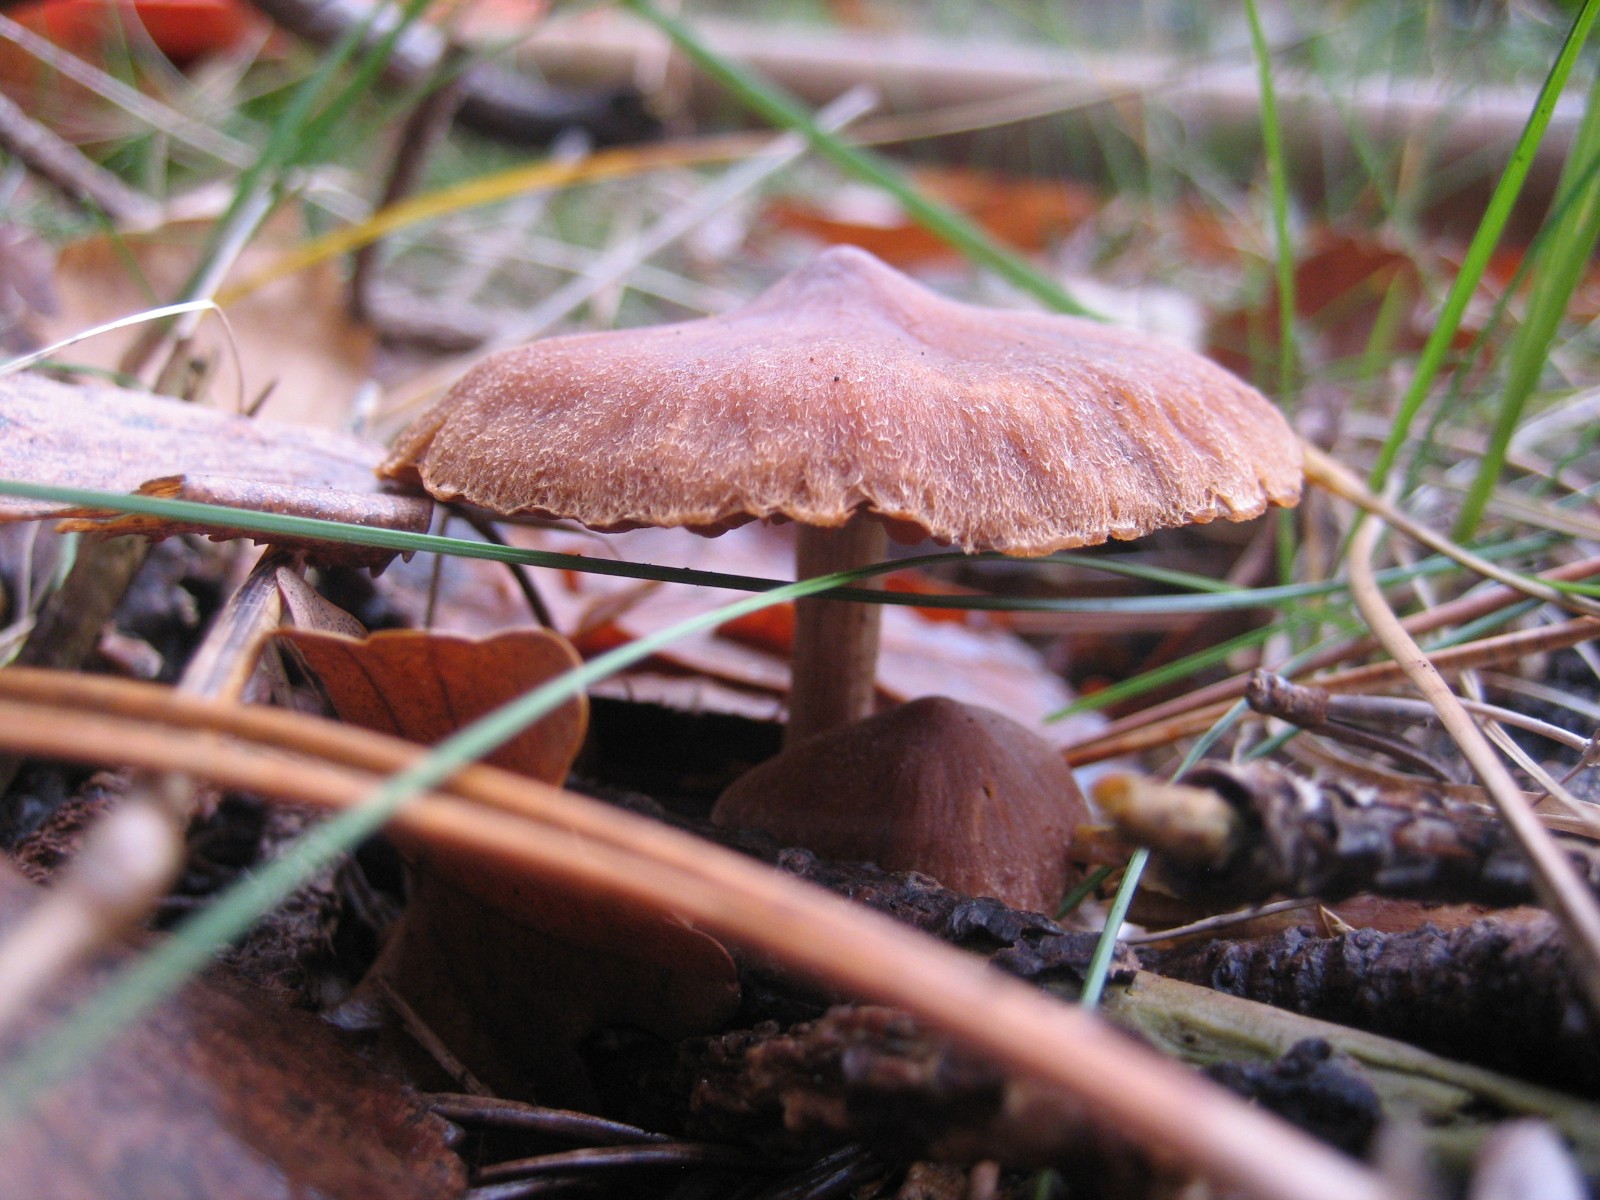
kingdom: Fungi
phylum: Basidiomycota
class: Agaricomycetes
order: Agaricales
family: Cortinariaceae
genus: Cortinarius
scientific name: Cortinarius
